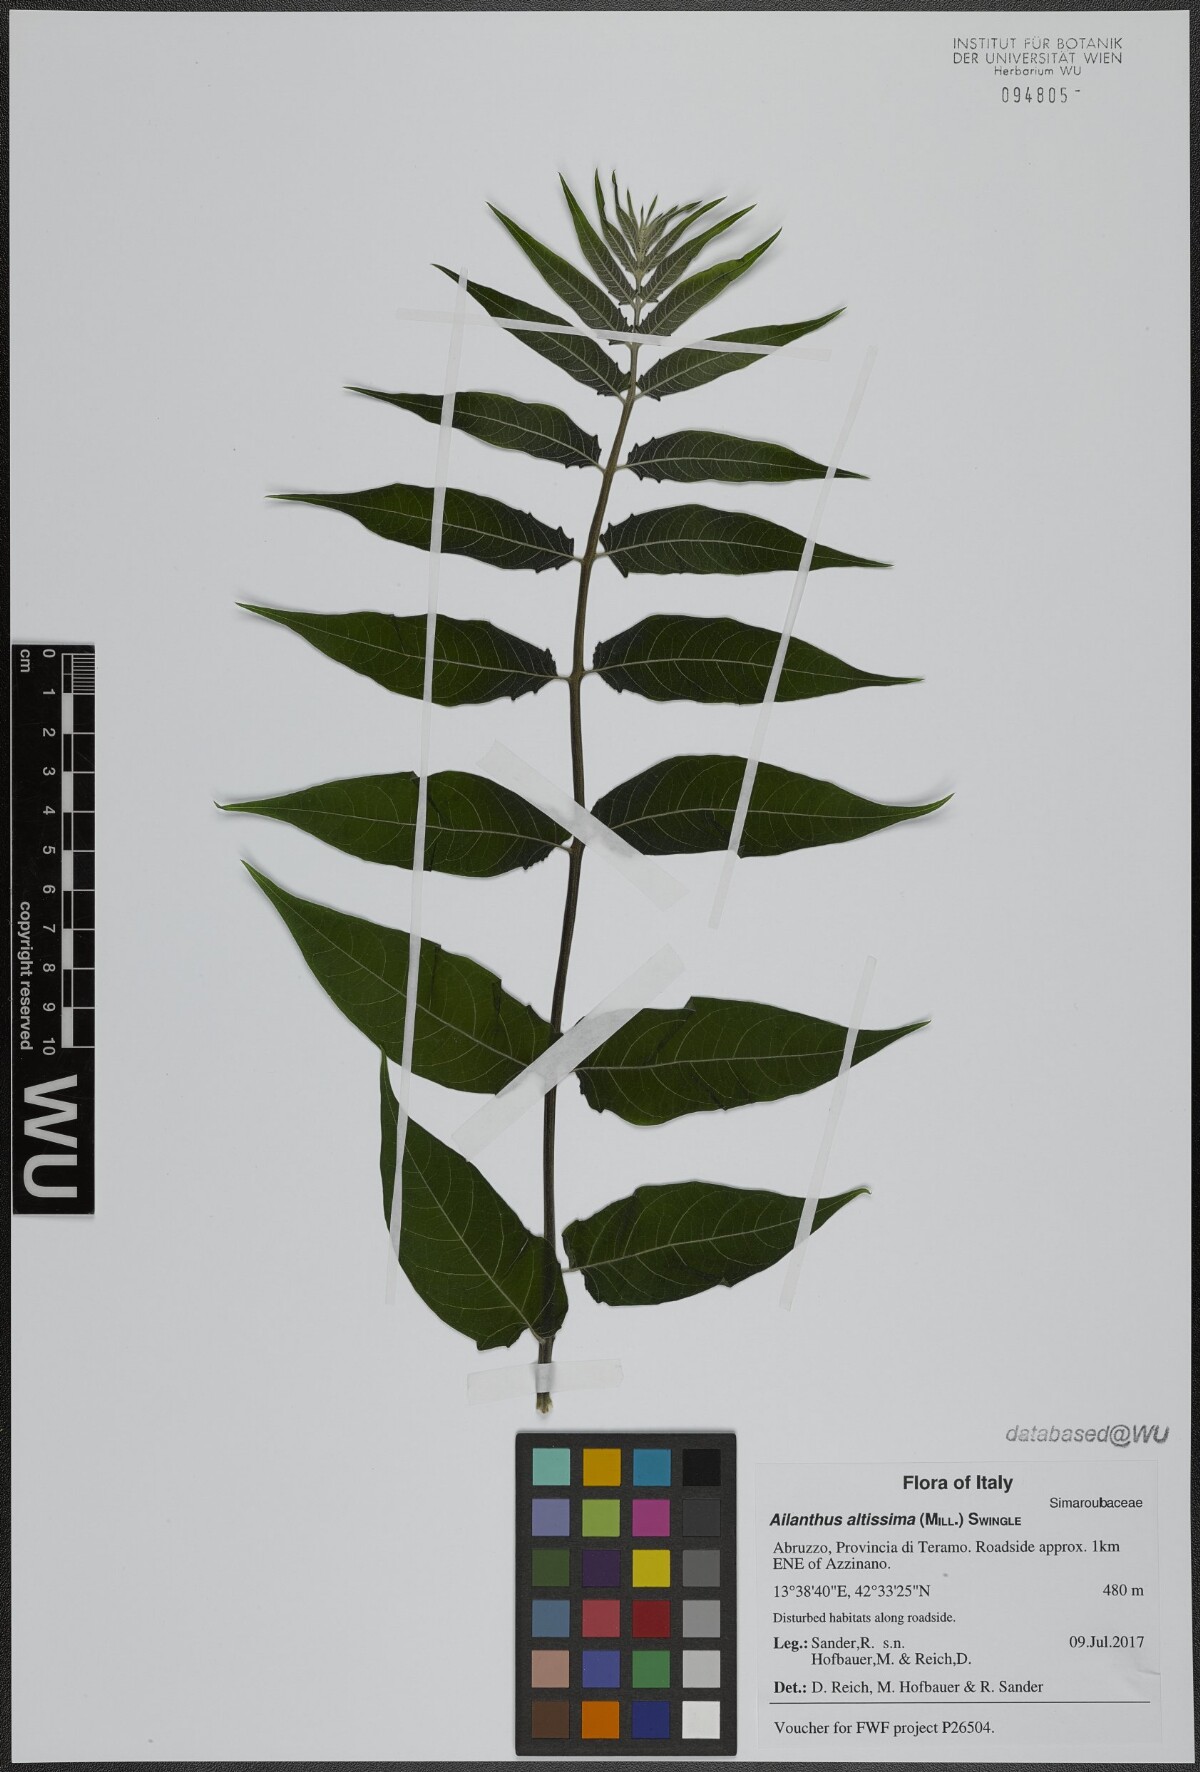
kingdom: Plantae
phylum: Tracheophyta
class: Magnoliopsida
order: Sapindales
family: Simaroubaceae
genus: Ailanthus
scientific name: Ailanthus altissima
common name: Tree-of-heaven
